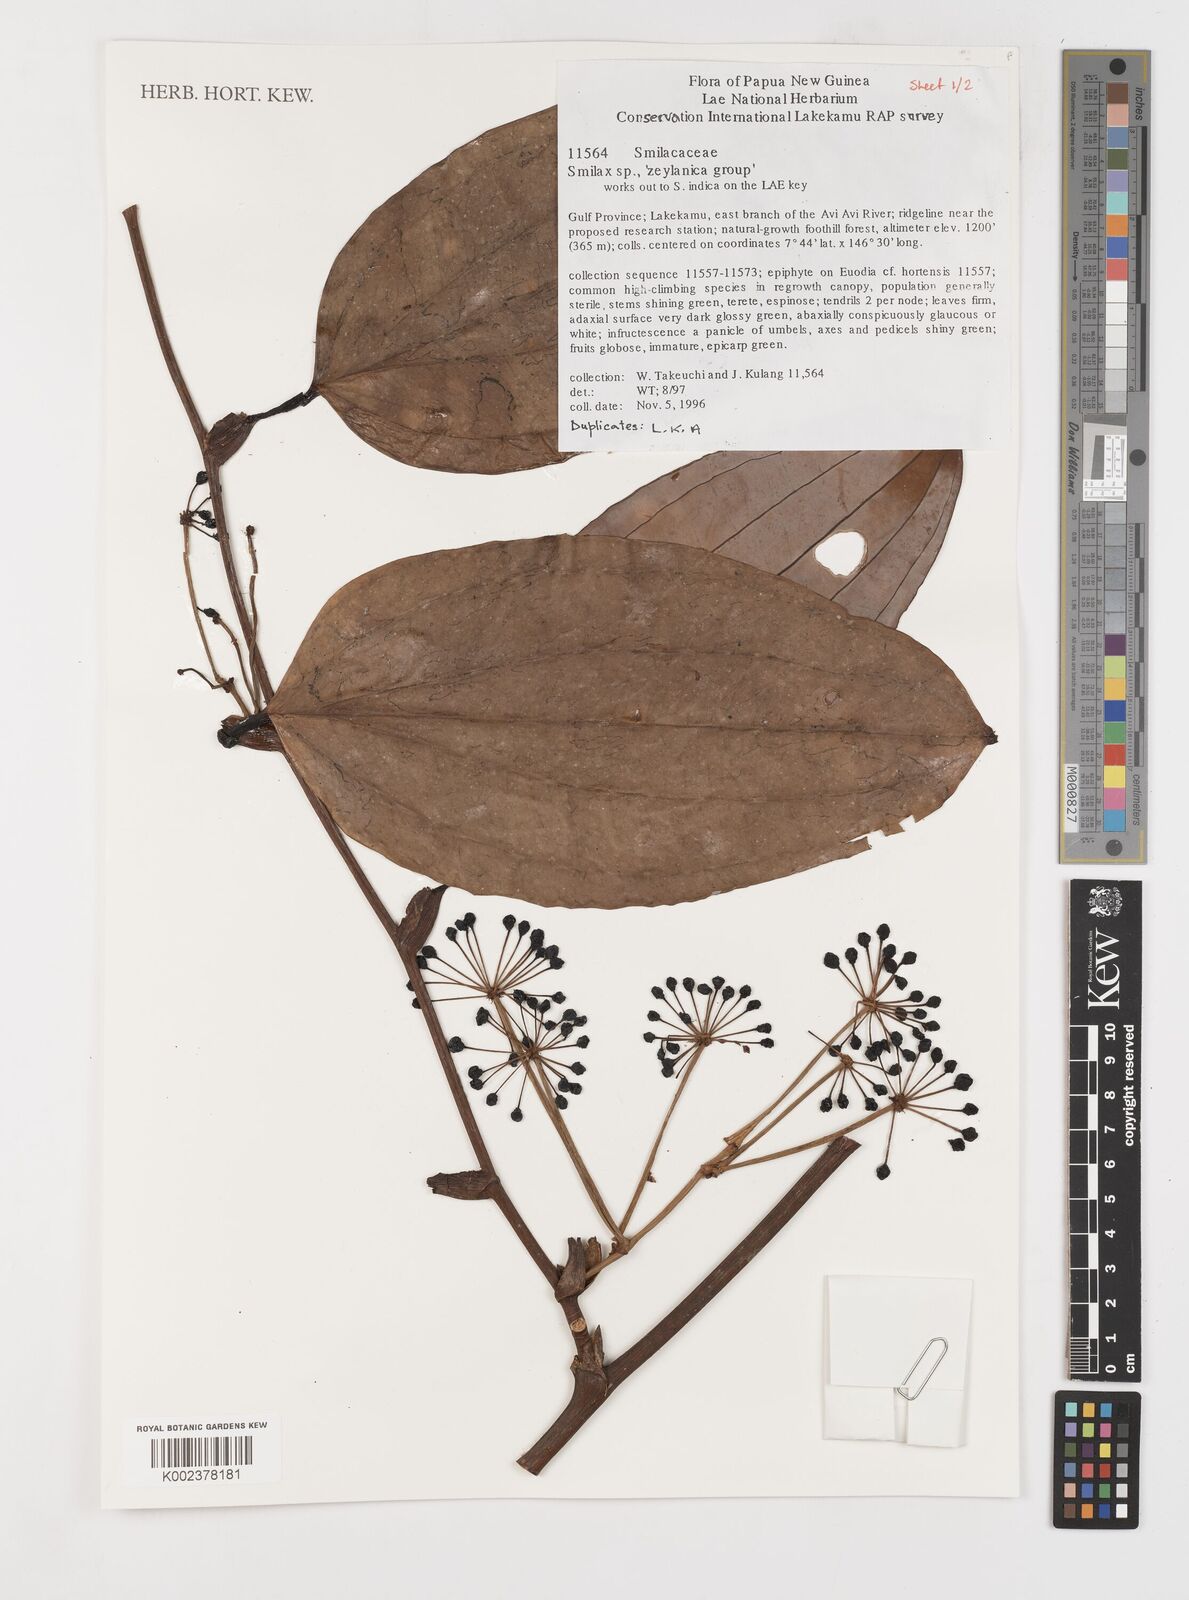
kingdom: Plantae
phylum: Tracheophyta
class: Liliopsida
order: Liliales
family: Smilacaceae
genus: Smilax
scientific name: Smilax zeylanica
